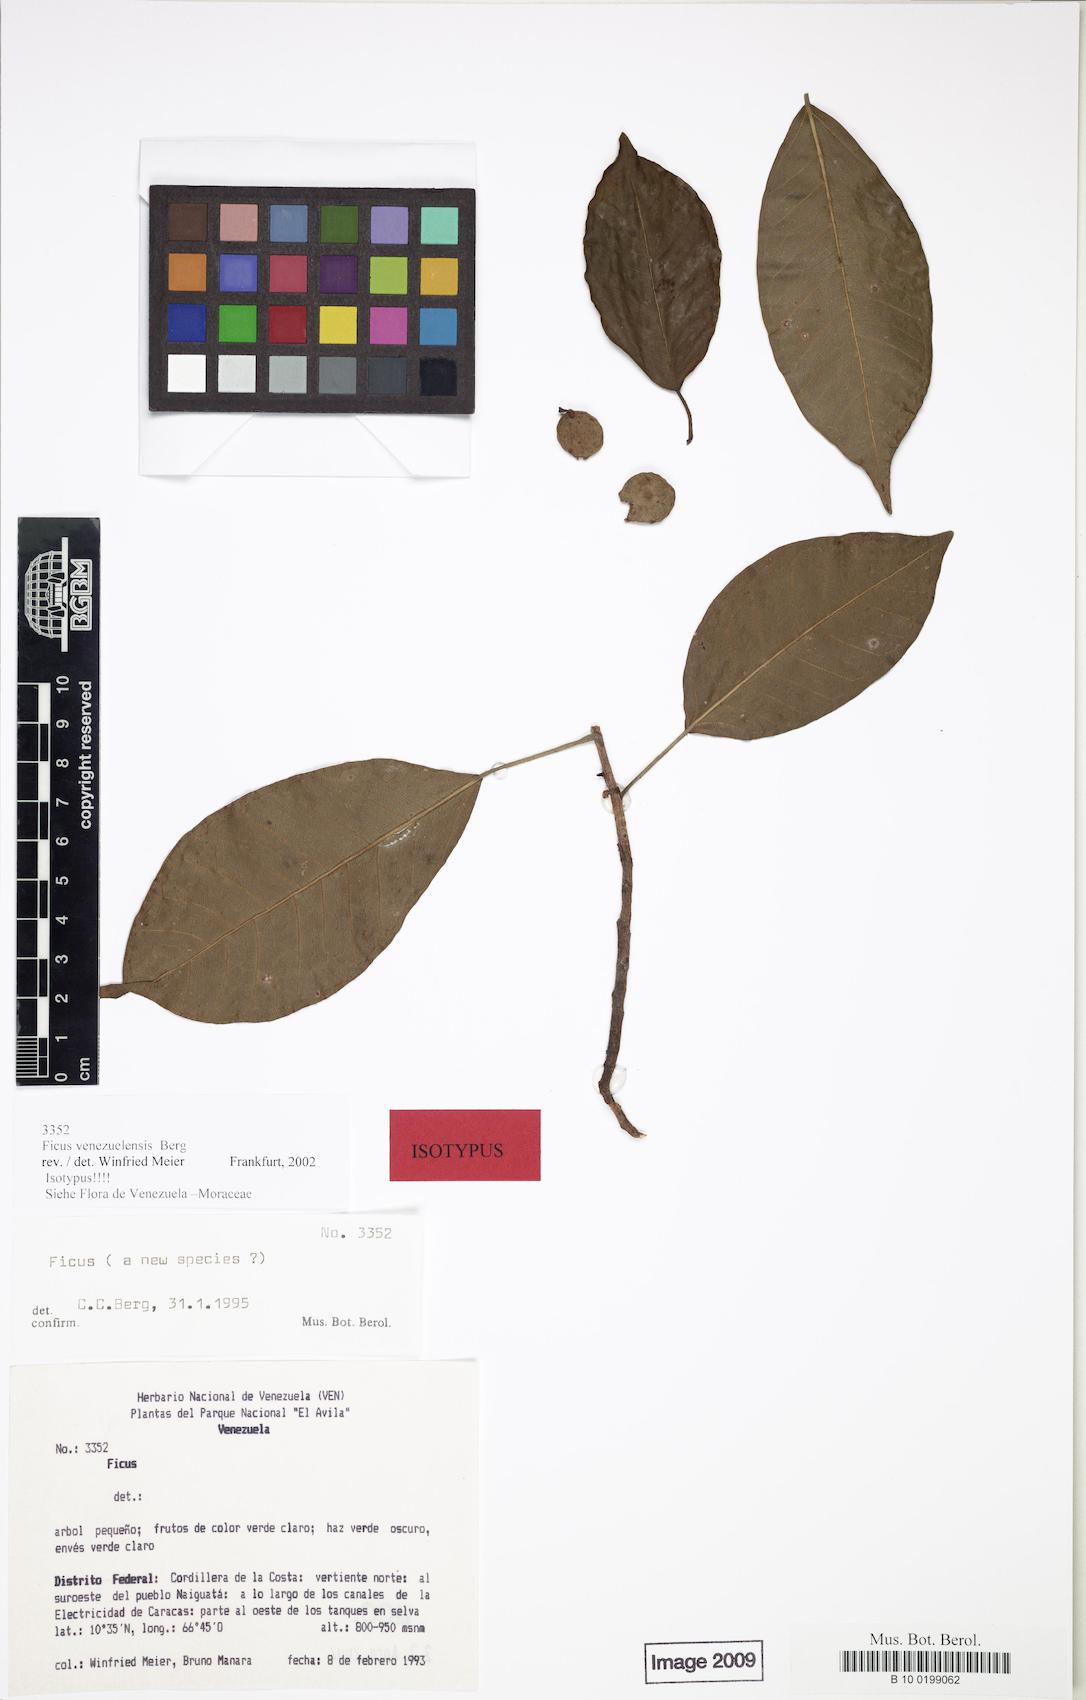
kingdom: Plantae
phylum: Tracheophyta
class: Magnoliopsida
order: Rosales
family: Moraceae
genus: Ficus
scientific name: Ficus venezuelensis
